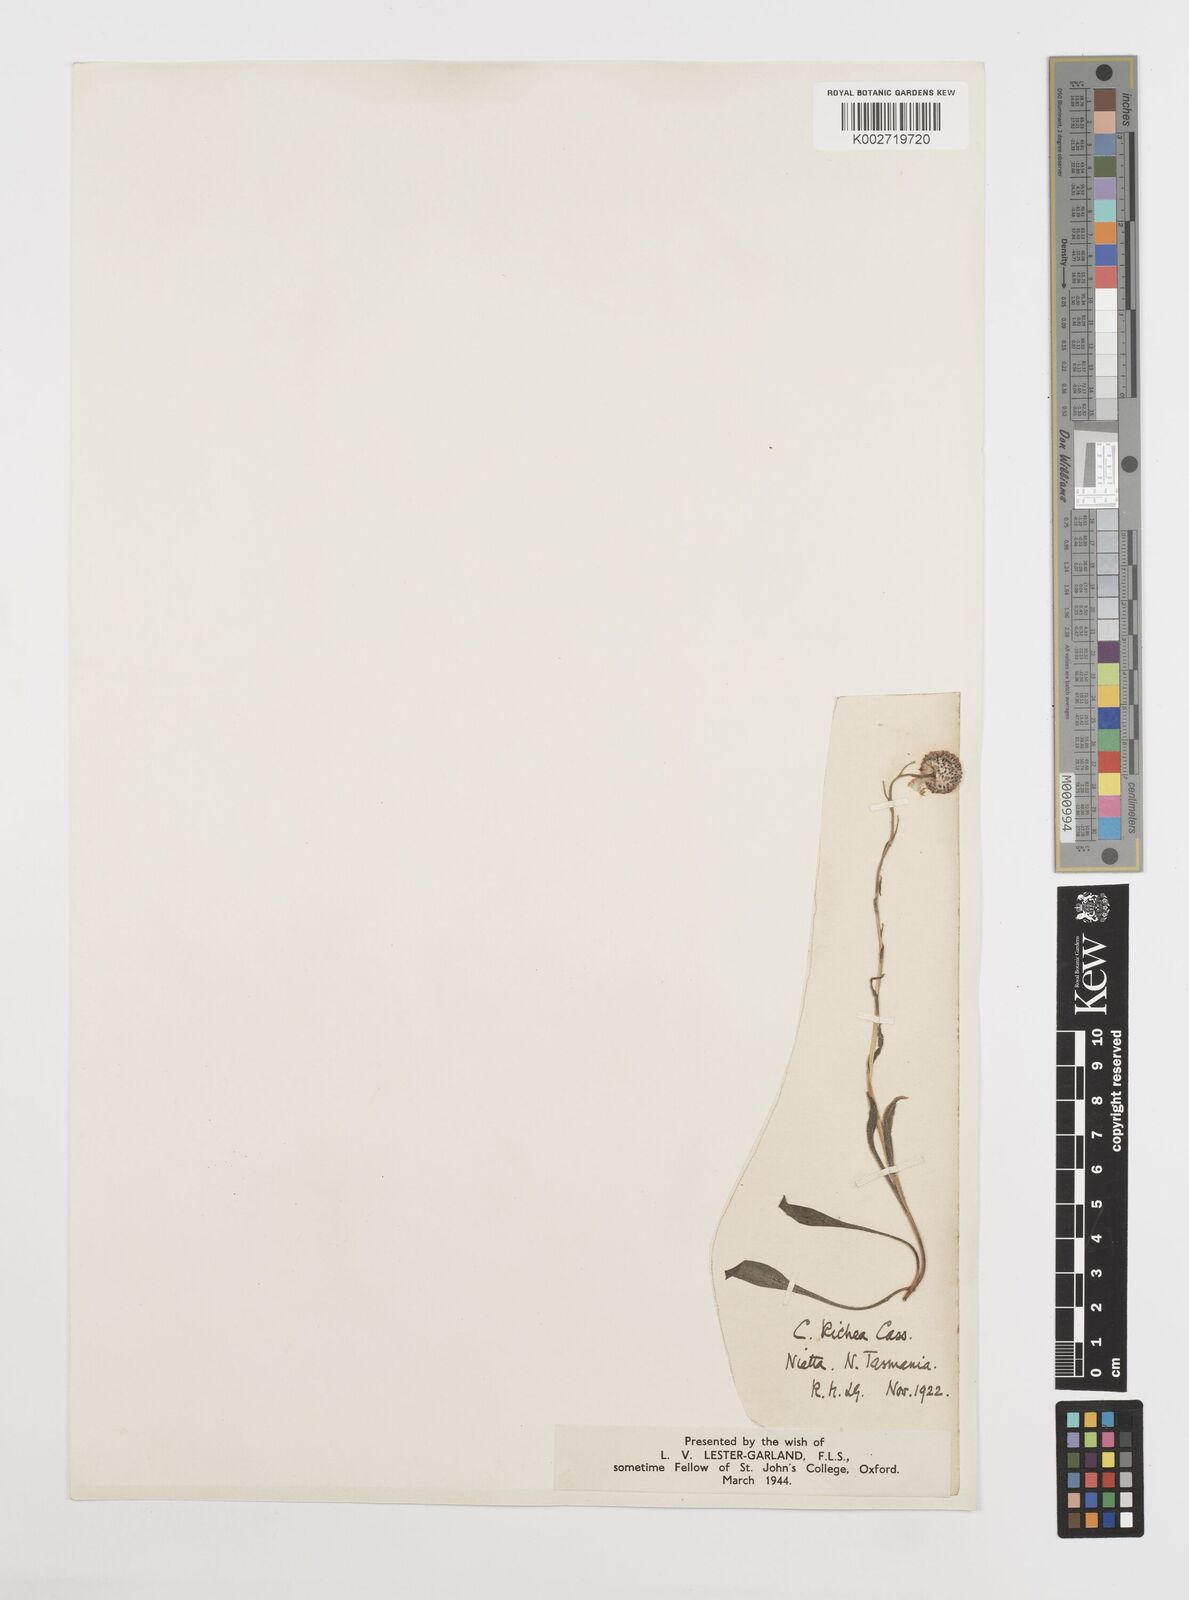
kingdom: Plantae
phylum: Tracheophyta
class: Magnoliopsida
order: Asterales
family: Asteraceae
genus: Craspedia
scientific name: Craspedia glauca
